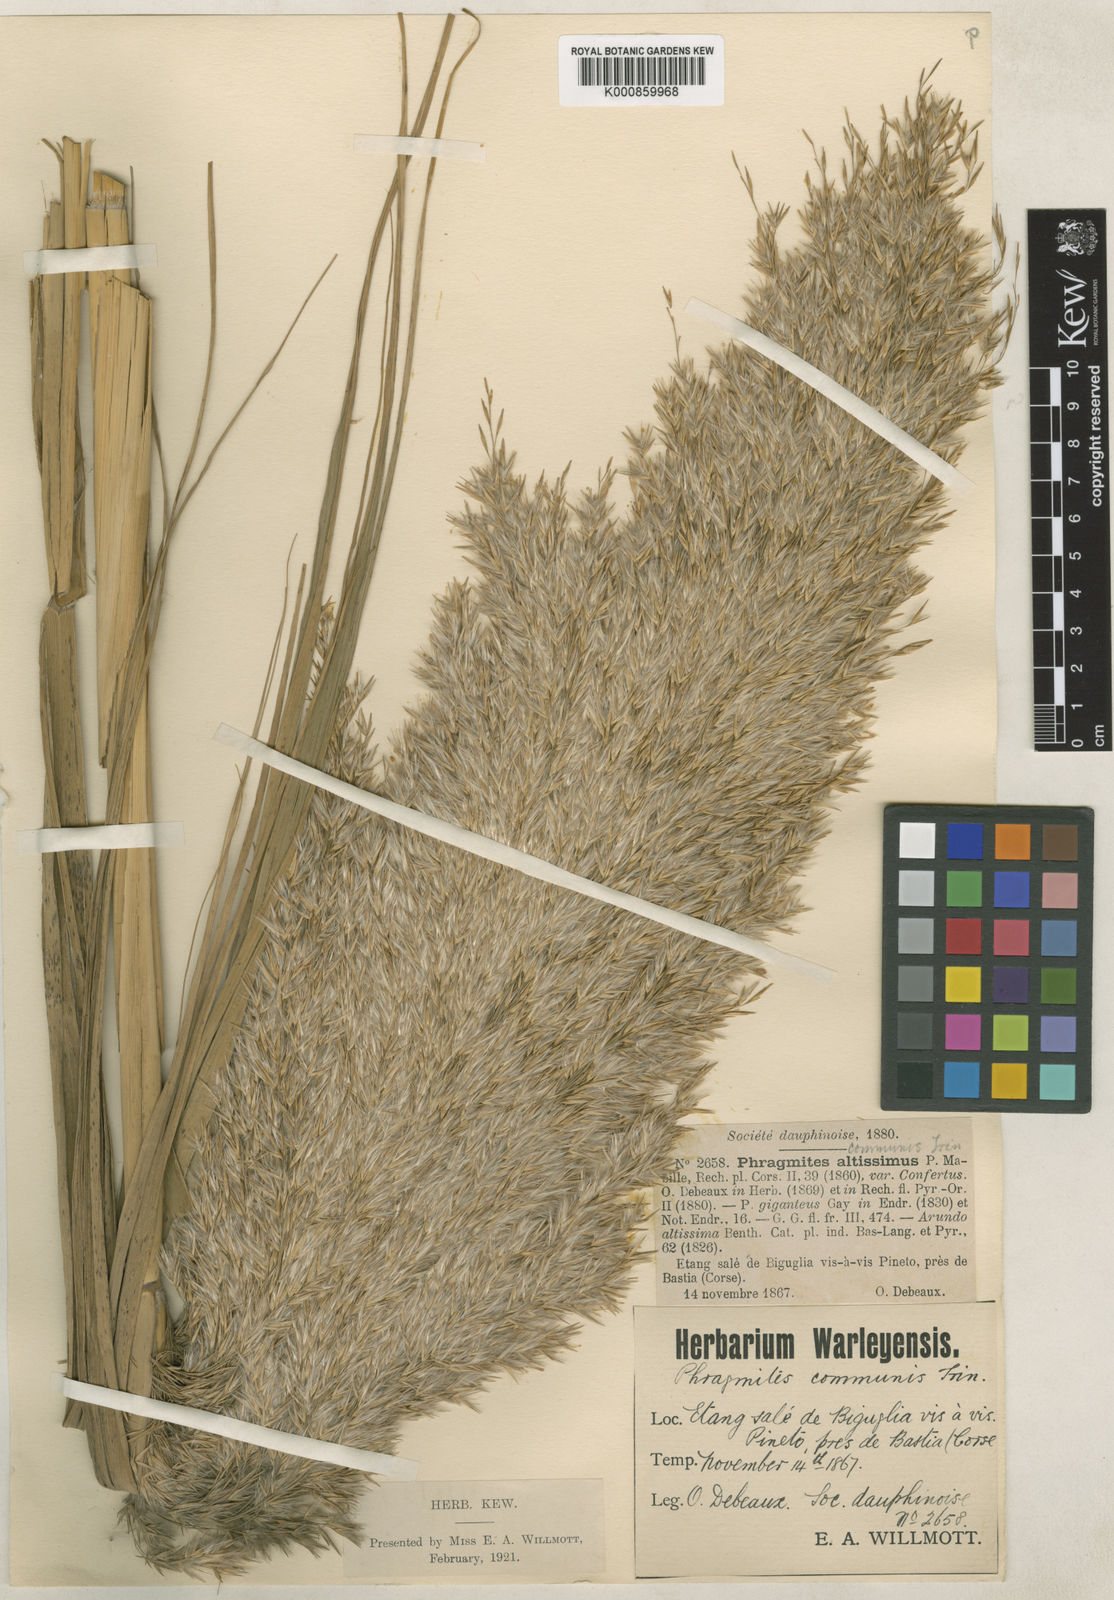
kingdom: Plantae
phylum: Tracheophyta
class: Liliopsida
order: Poales
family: Poaceae
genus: Phragmites
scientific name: Phragmites australis
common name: Common reed
